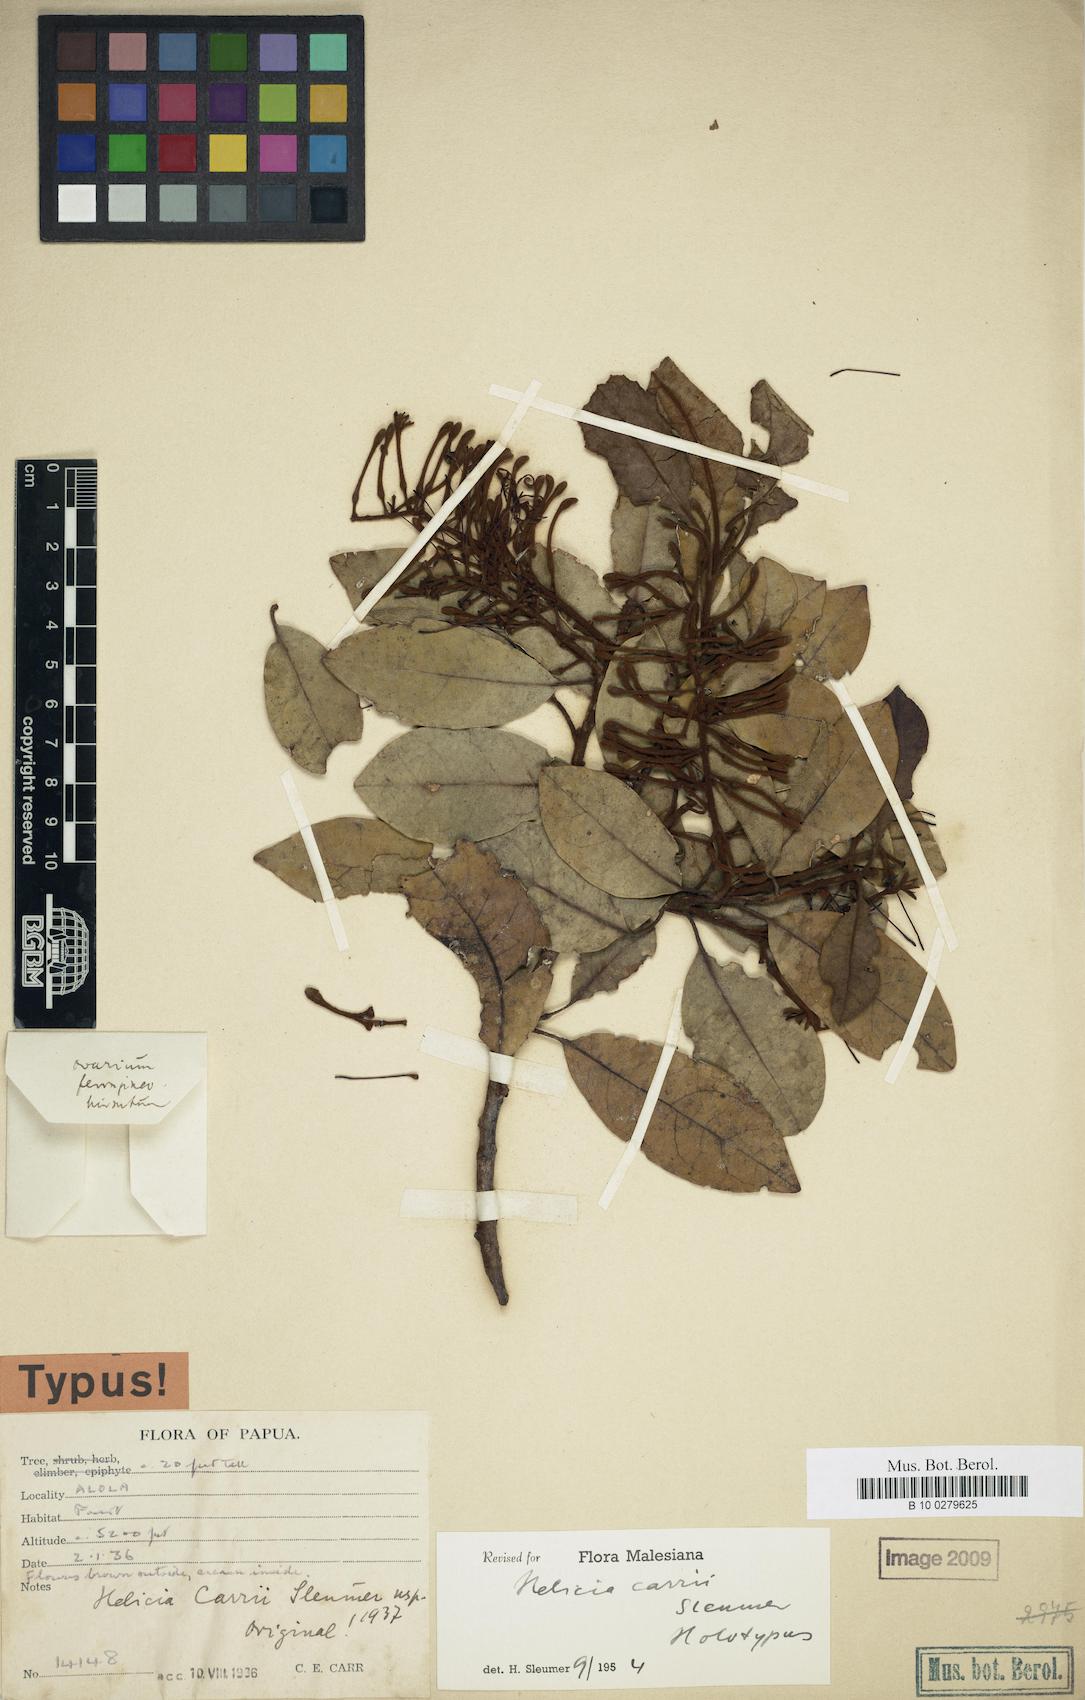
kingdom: Plantae
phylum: Tracheophyta
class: Magnoliopsida
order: Proteales
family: Proteaceae
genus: Helicia
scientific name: Helicia carrii
